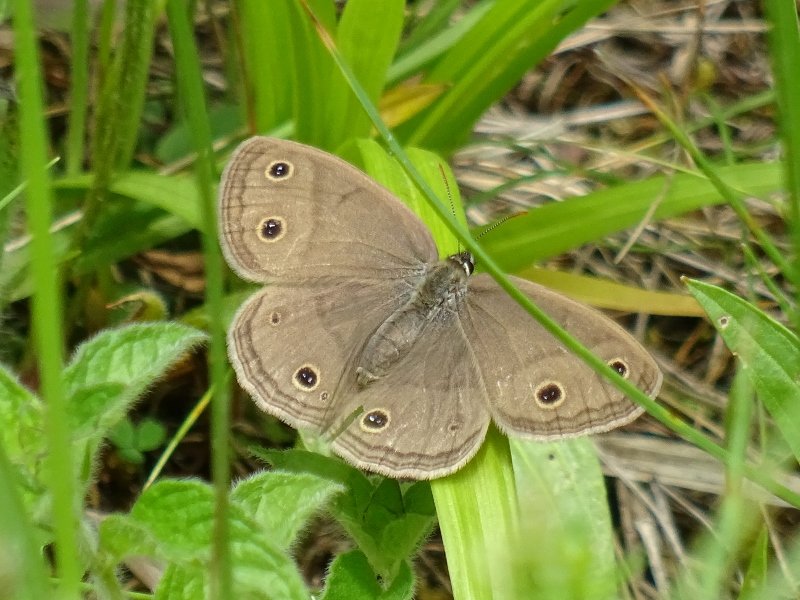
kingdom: Animalia
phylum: Arthropoda
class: Insecta
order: Lepidoptera
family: Nymphalidae
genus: Euptychia
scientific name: Euptychia cymela
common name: Little Wood Satyr
